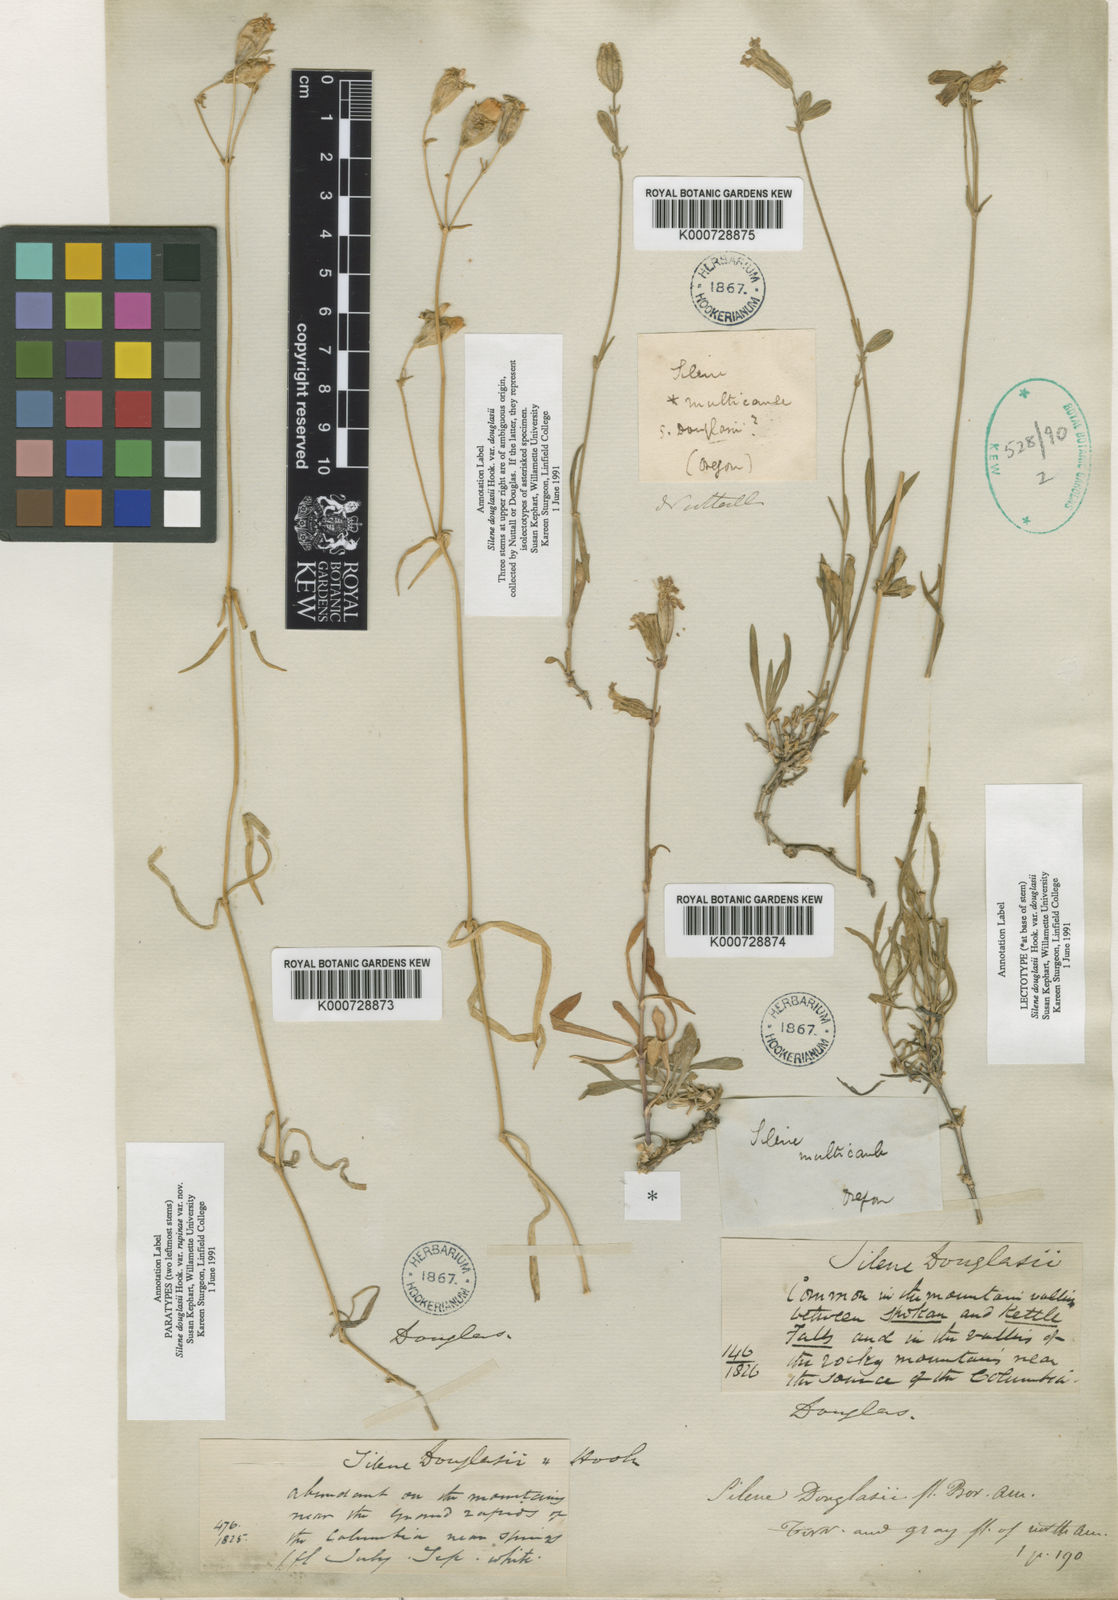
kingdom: Plantae
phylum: Tracheophyta
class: Magnoliopsida
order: Caryophyllales
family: Caryophyllaceae
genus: Silene
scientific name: Silene douglasii
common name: Douglas's catchfly
